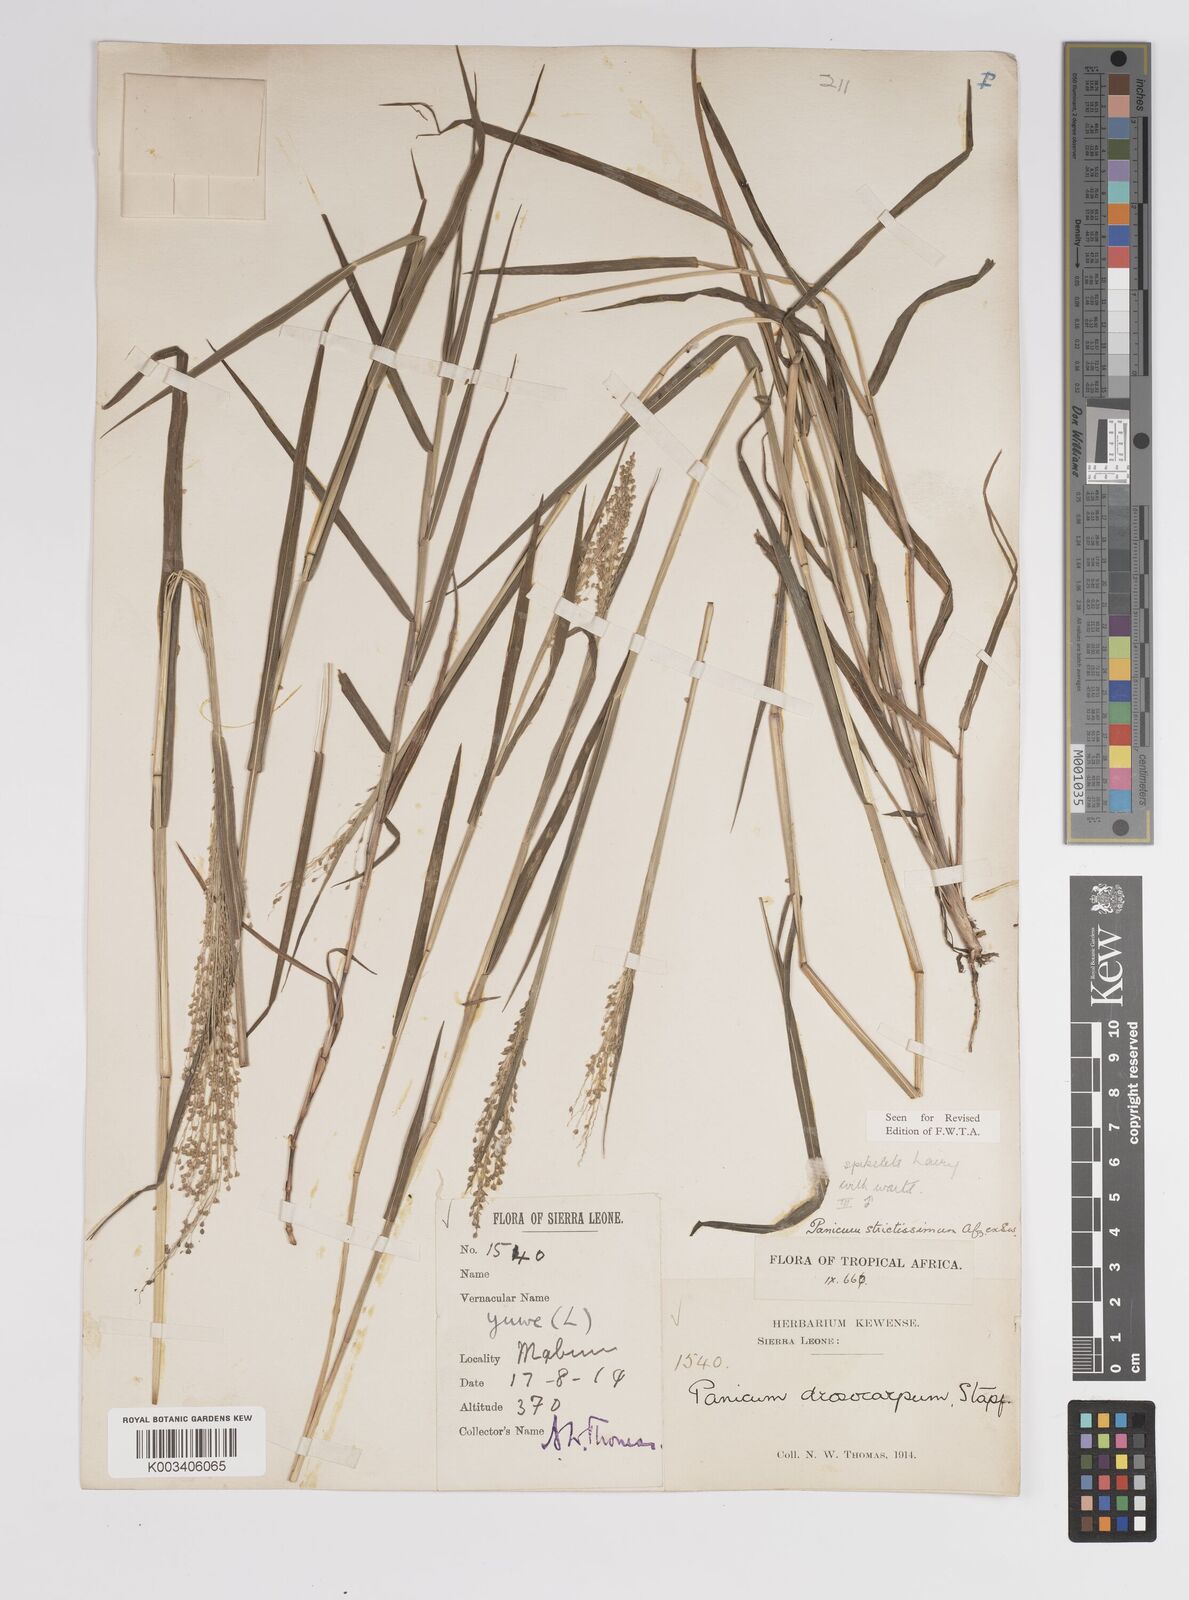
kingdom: Plantae
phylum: Tracheophyta
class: Liliopsida
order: Poales
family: Poaceae
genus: Panicum
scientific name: Panicum eickii
